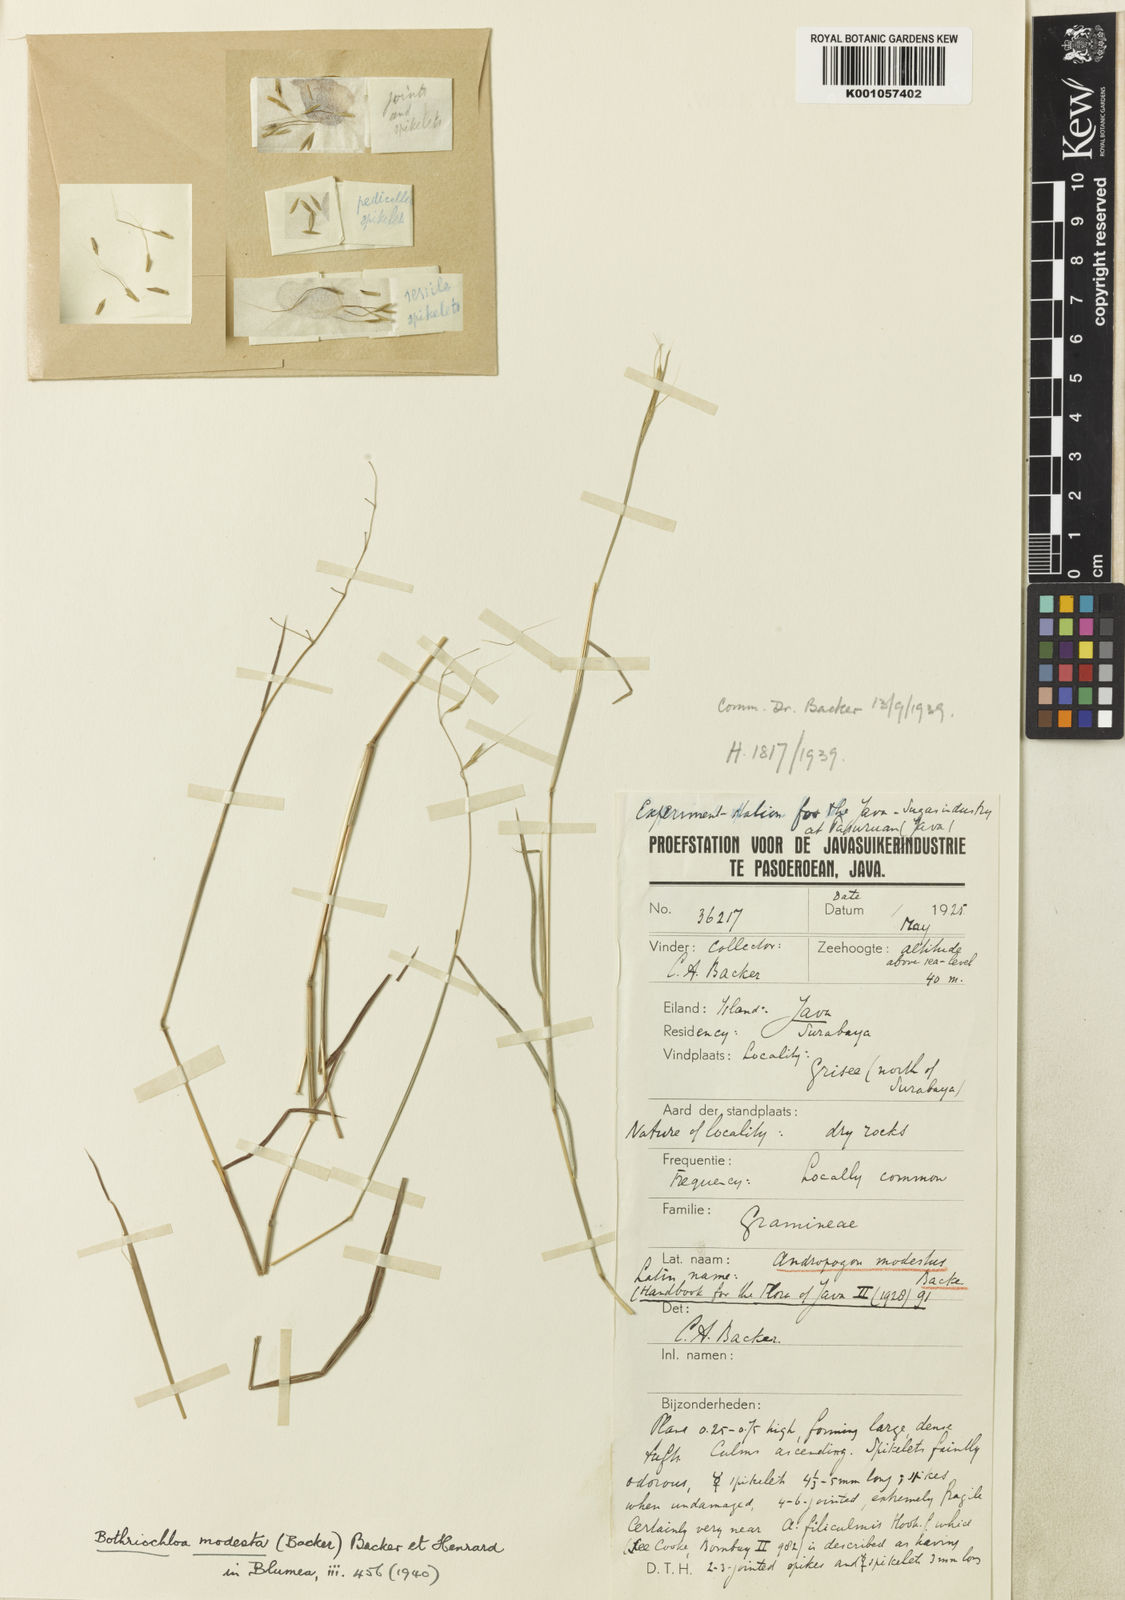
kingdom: Plantae
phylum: Tracheophyta
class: Liliopsida
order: Poales
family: Poaceae
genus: Capillipedium
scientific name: Capillipedium
